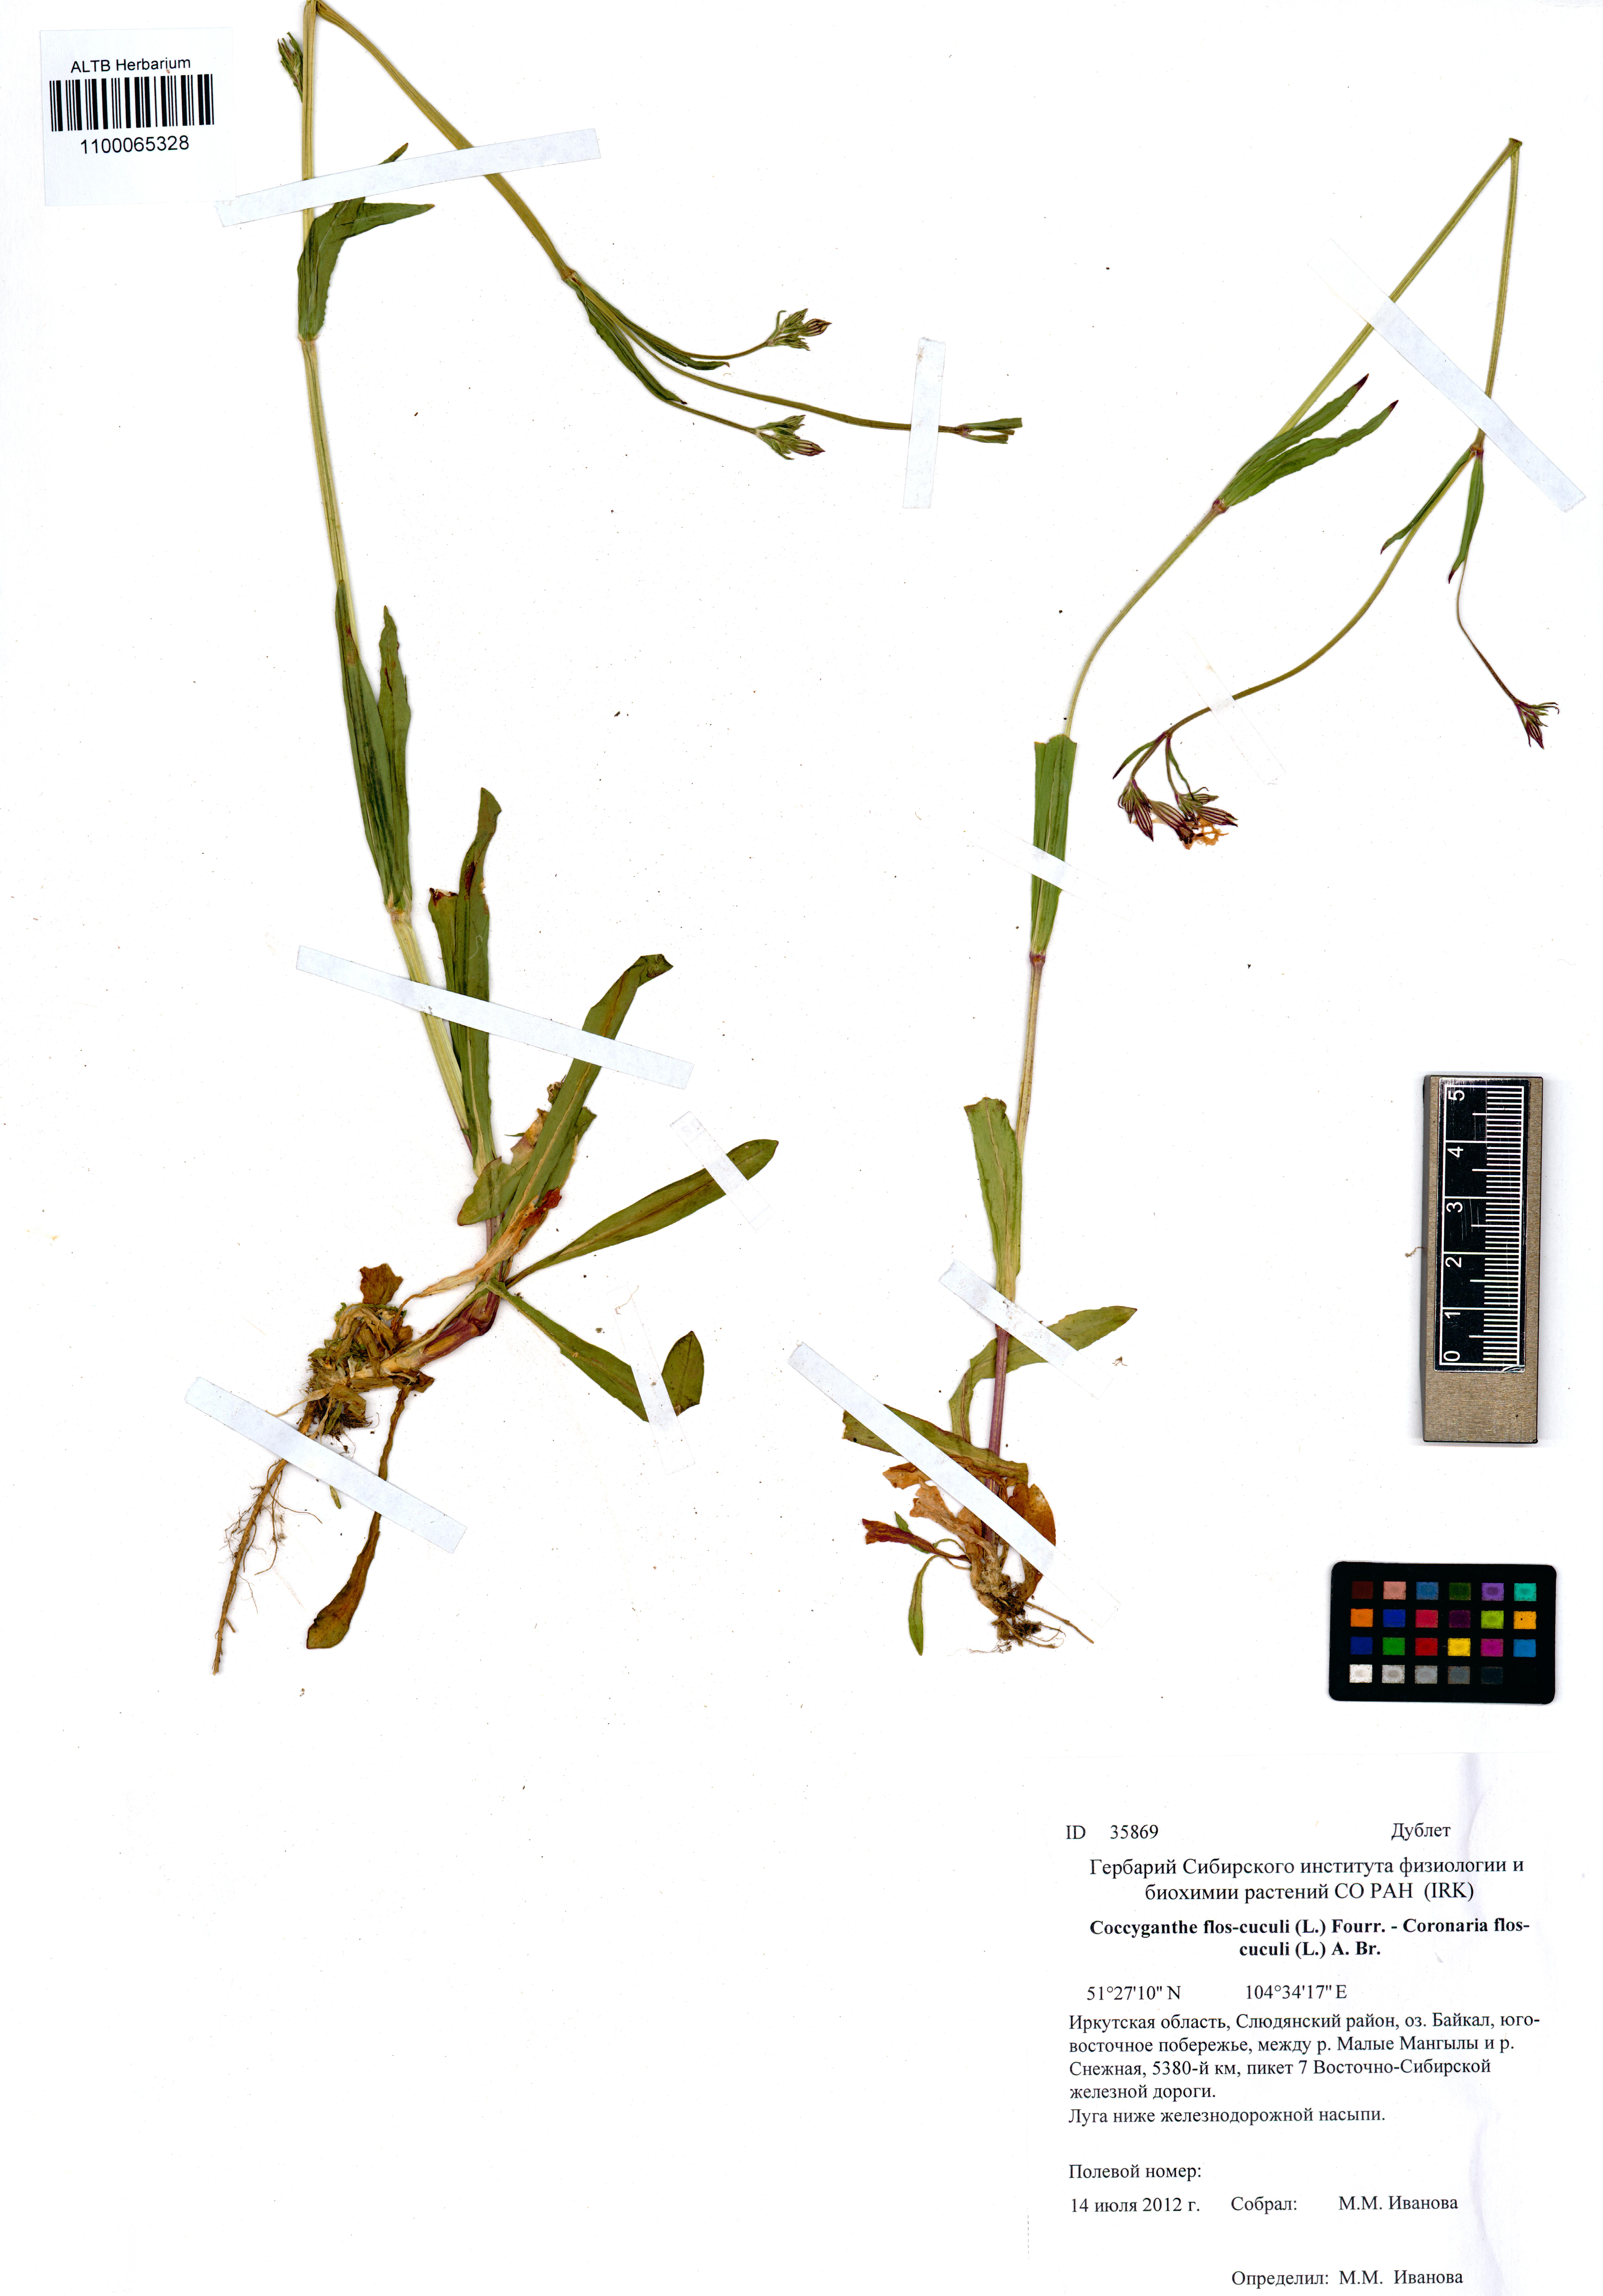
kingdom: Plantae
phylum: Tracheophyta
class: Magnoliopsida
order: Caryophyllales
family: Caryophyllaceae
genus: Silene
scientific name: Silene flos-cuculi
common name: Ragged-robin
